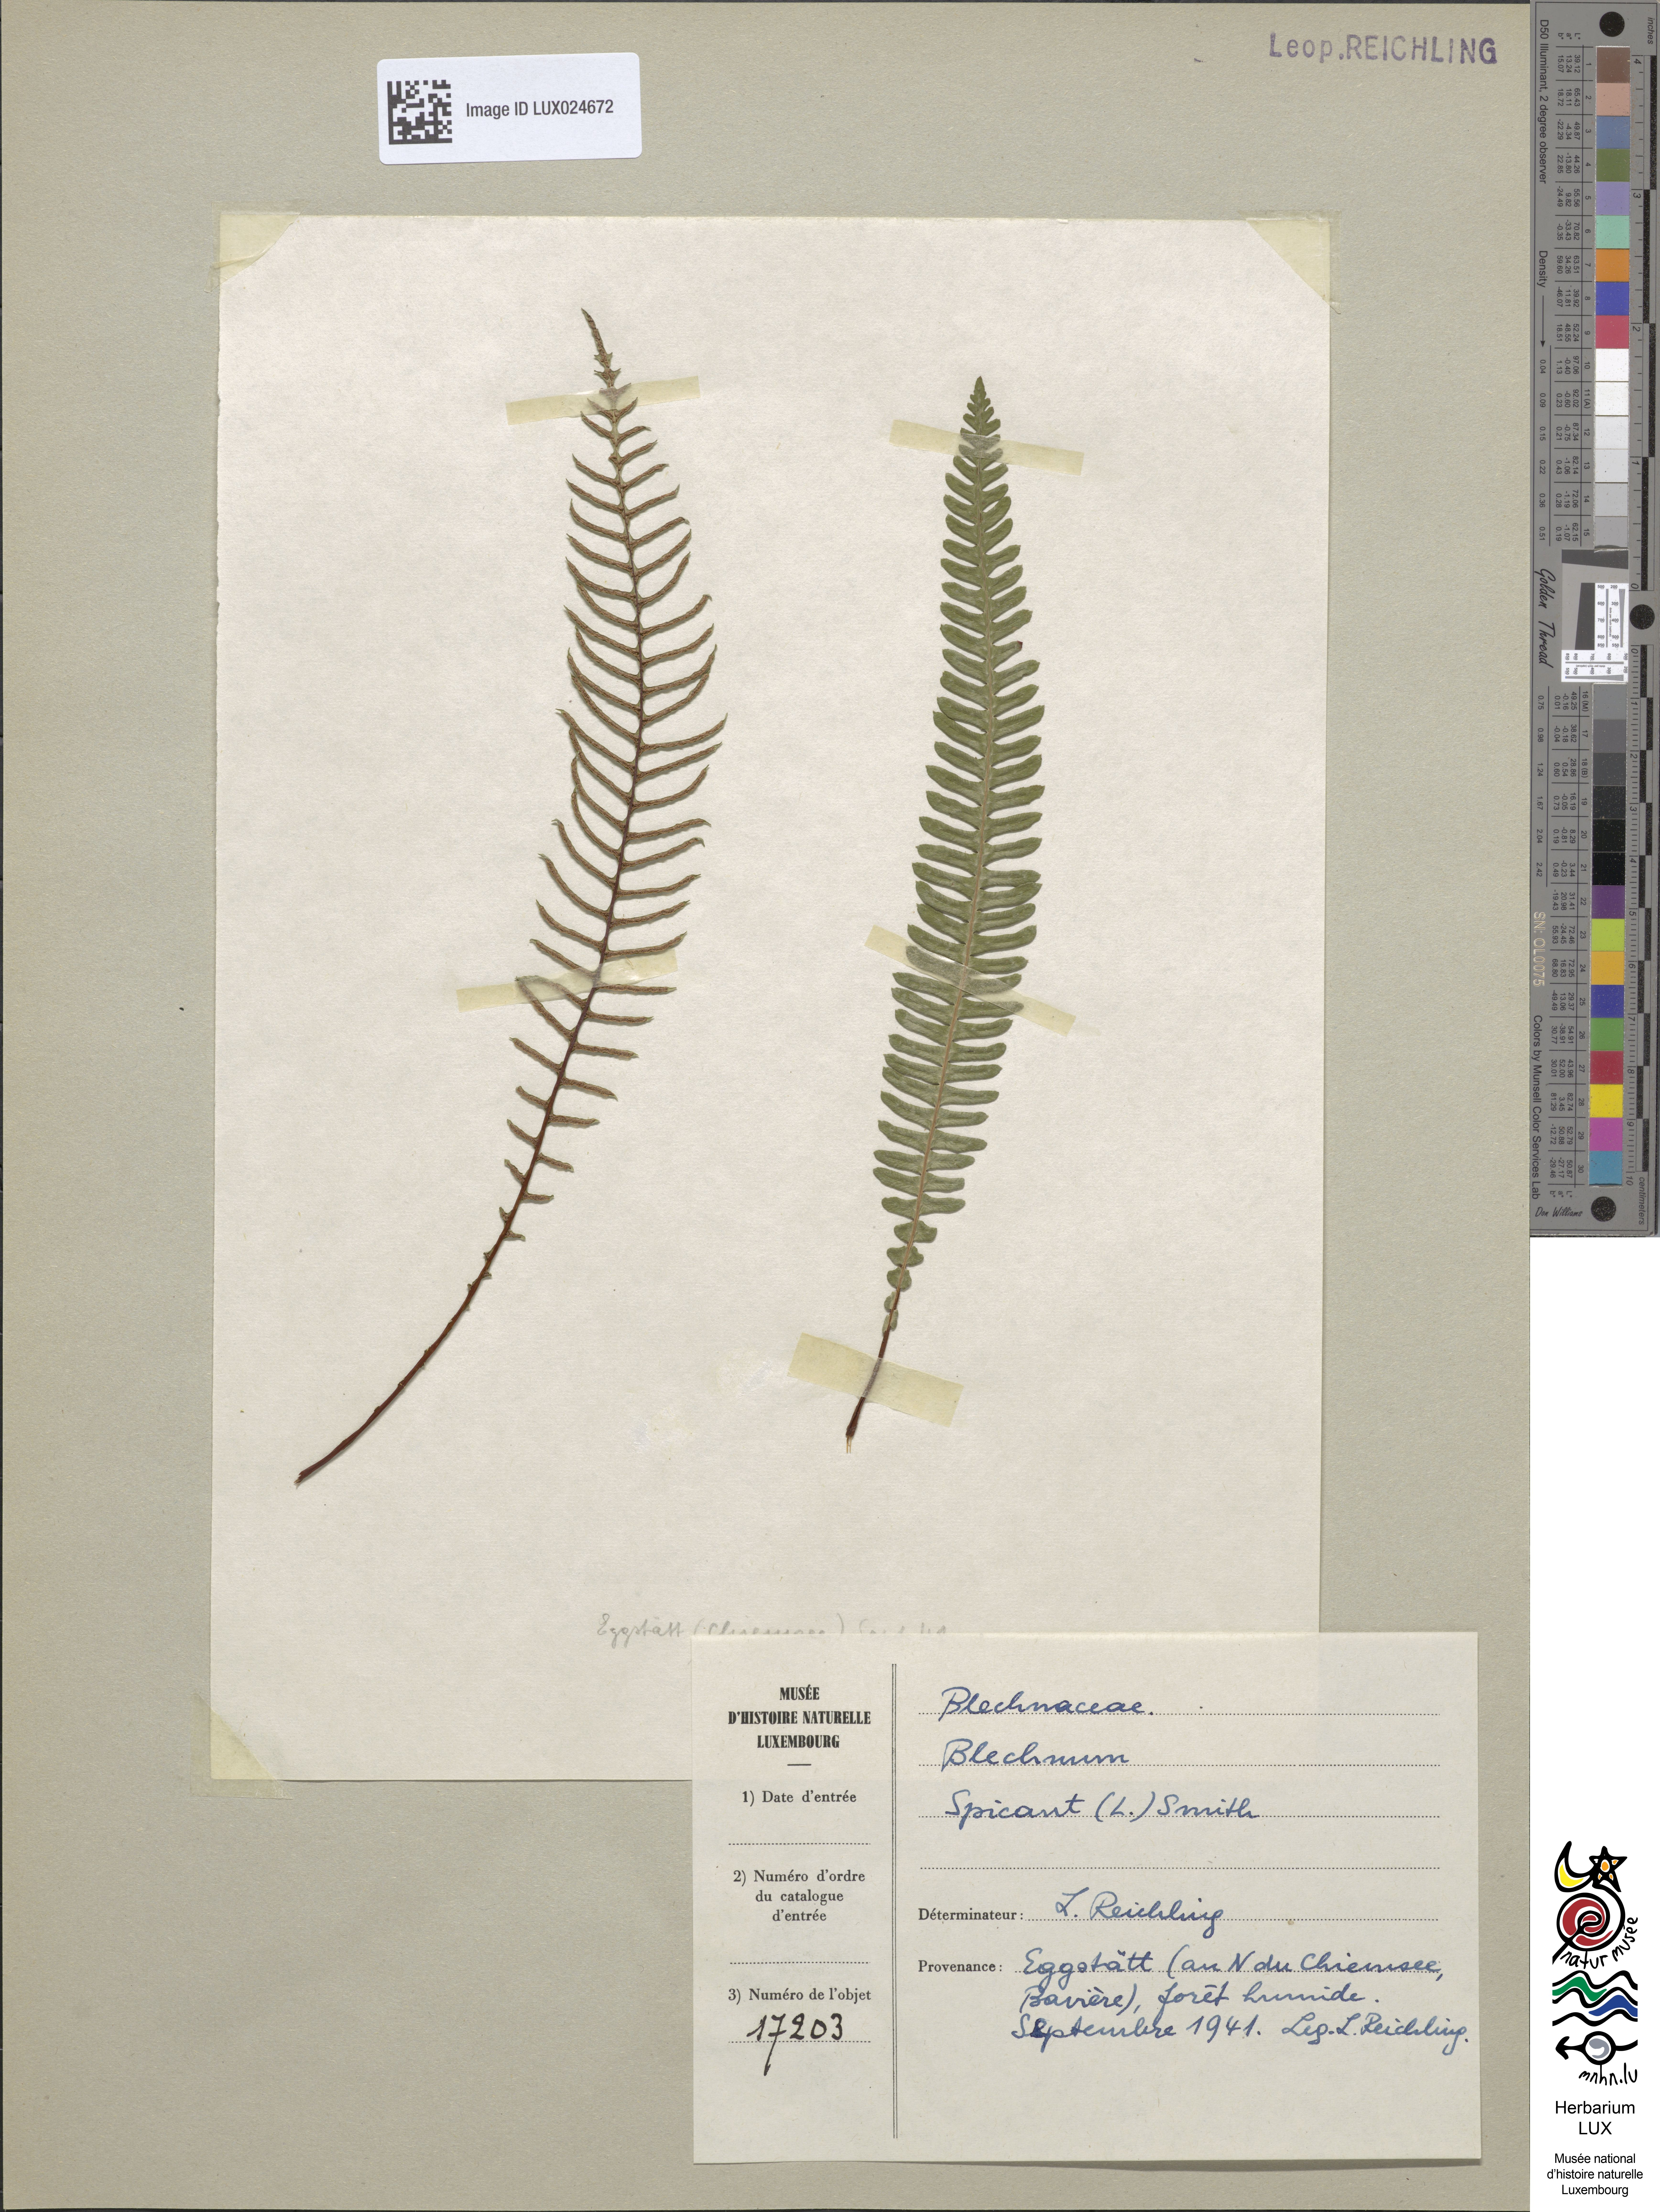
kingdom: Plantae
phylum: Tracheophyta
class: Polypodiopsida
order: Polypodiales
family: Blechnaceae
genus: Struthiopteris
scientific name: Struthiopteris spicant
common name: Deer fern
